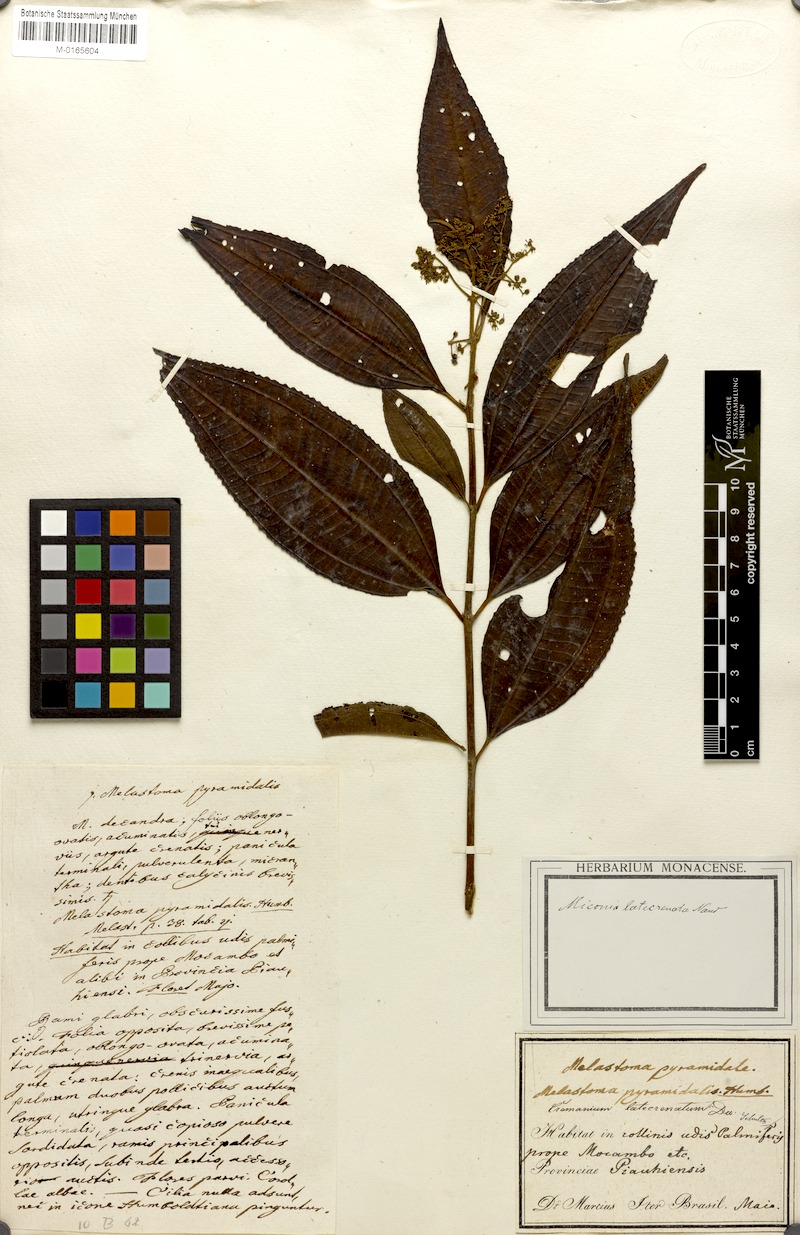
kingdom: Plantae
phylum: Tracheophyta
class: Magnoliopsida
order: Myrtales
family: Melastomataceae
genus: Miconia
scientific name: Miconia latecrenata
